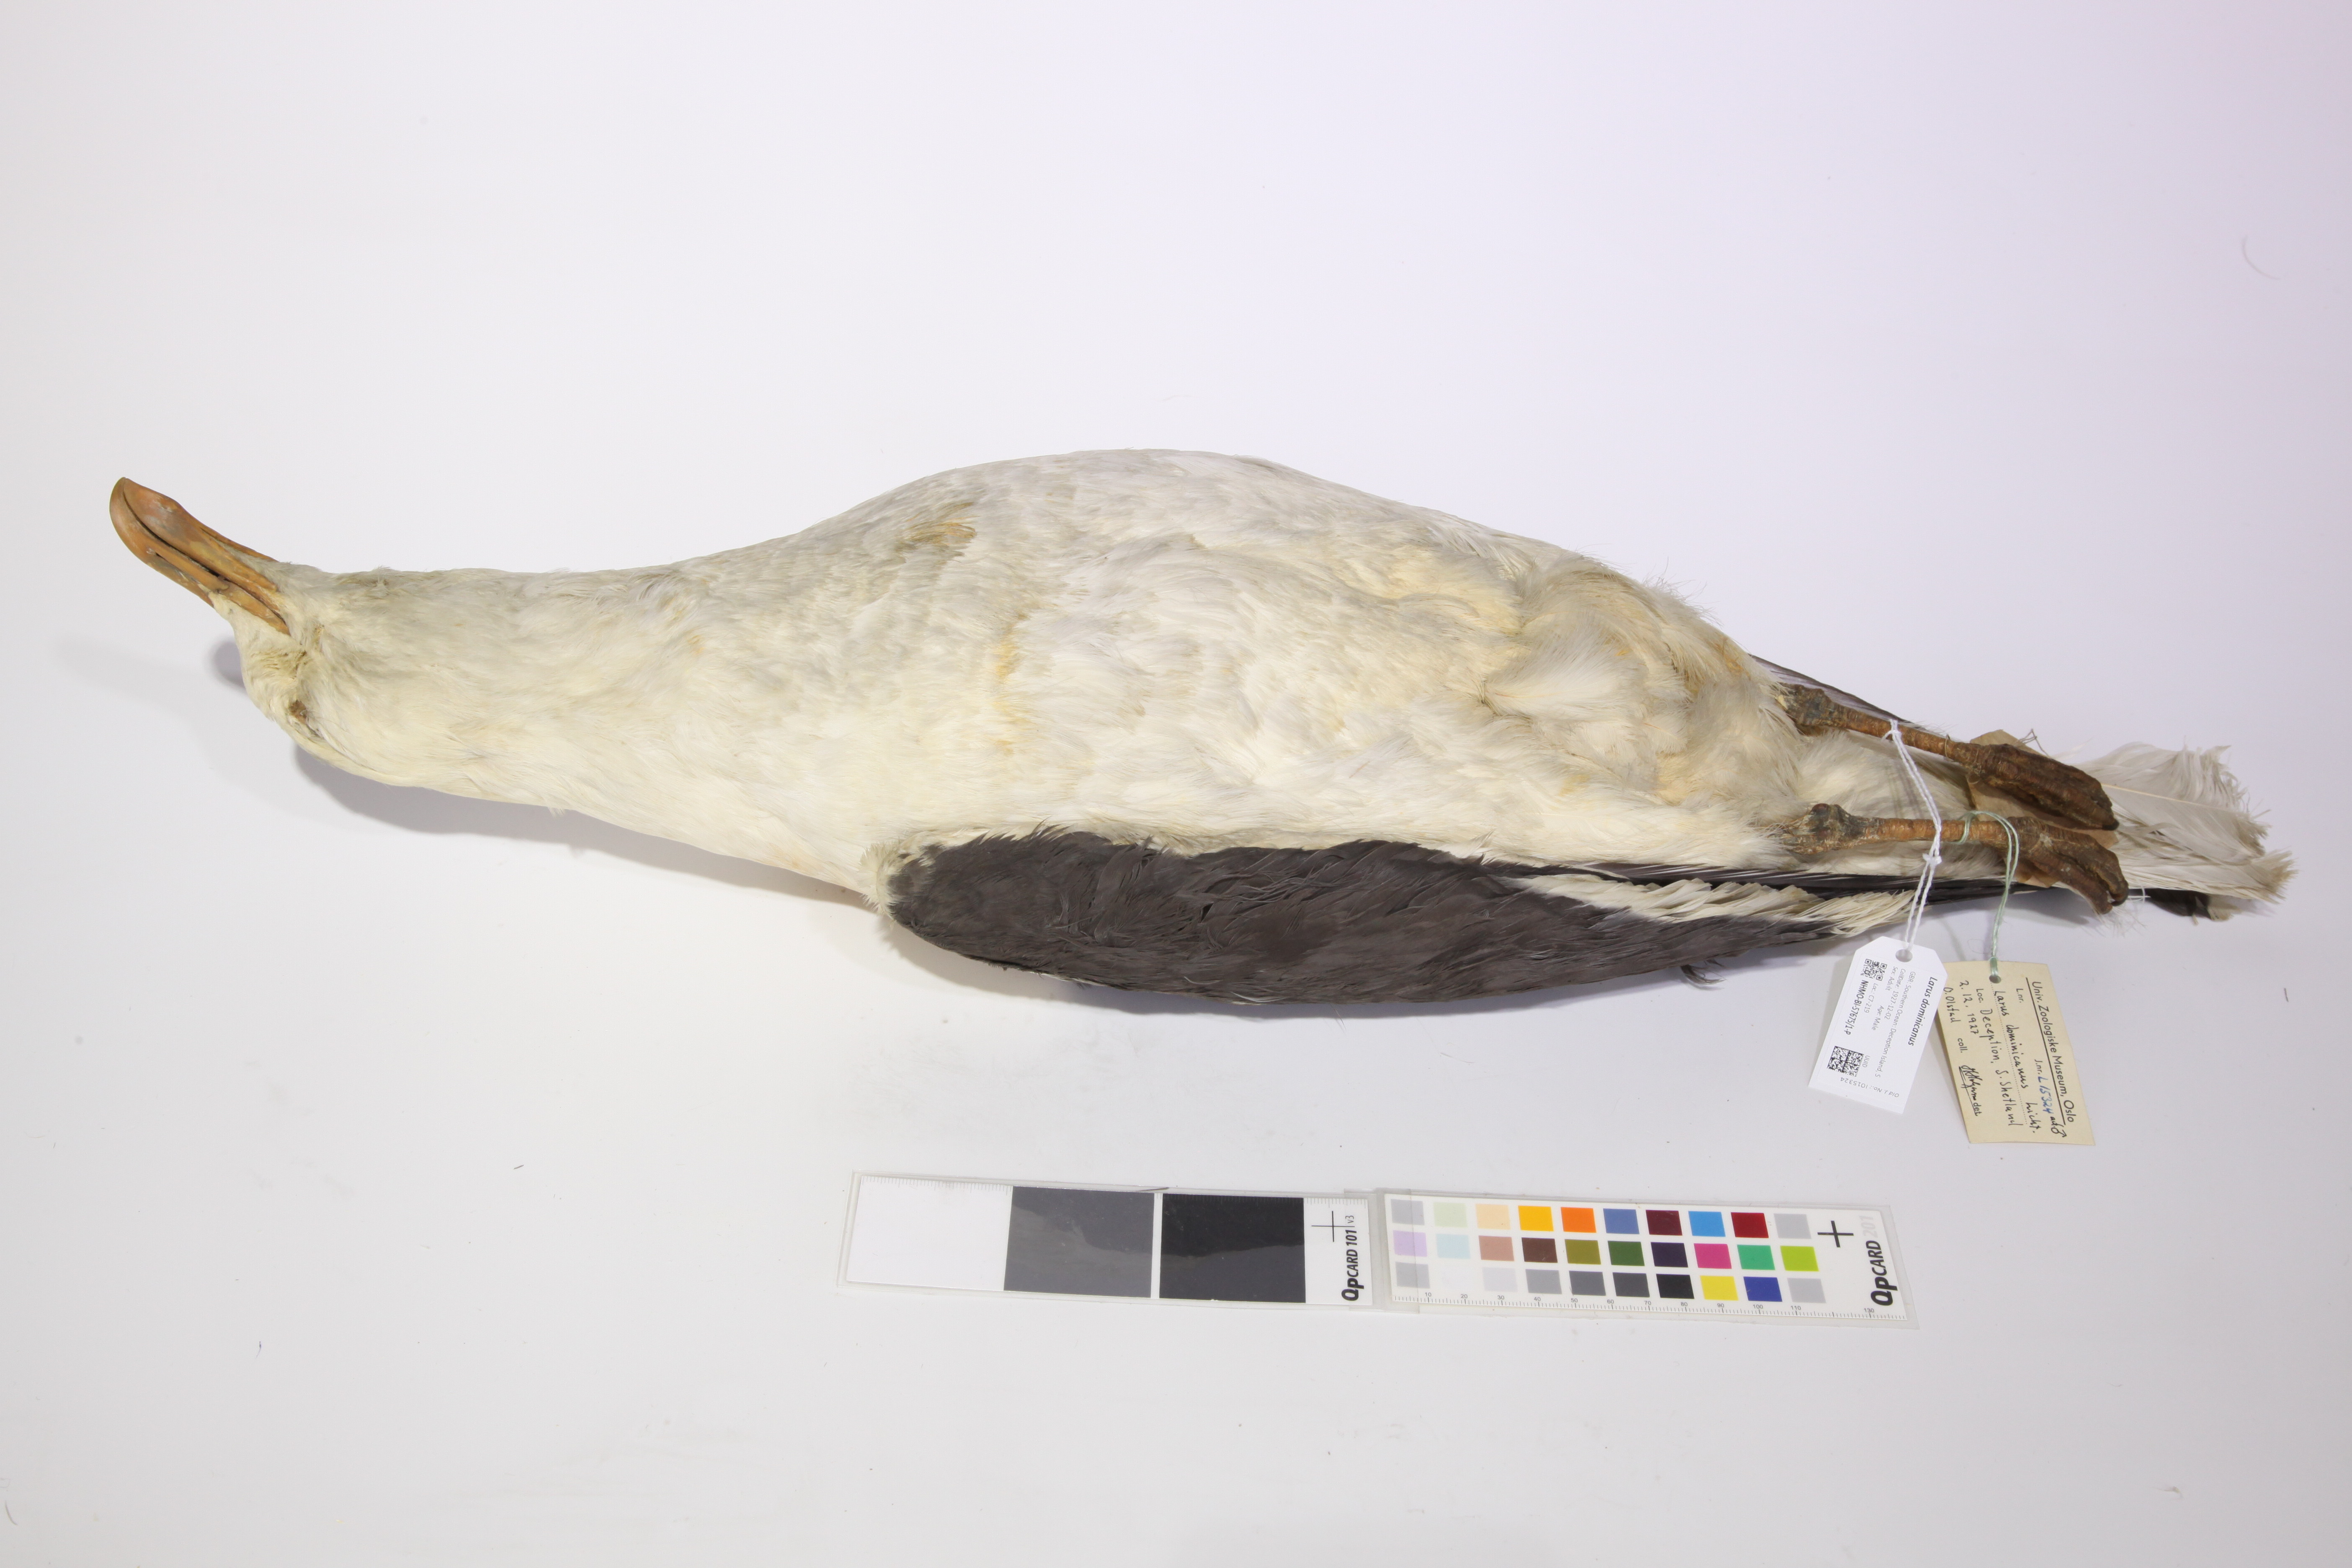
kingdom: Animalia
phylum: Chordata
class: Aves
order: Charadriiformes
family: Laridae
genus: Larus
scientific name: Larus dominicanus
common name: Kelp gull
